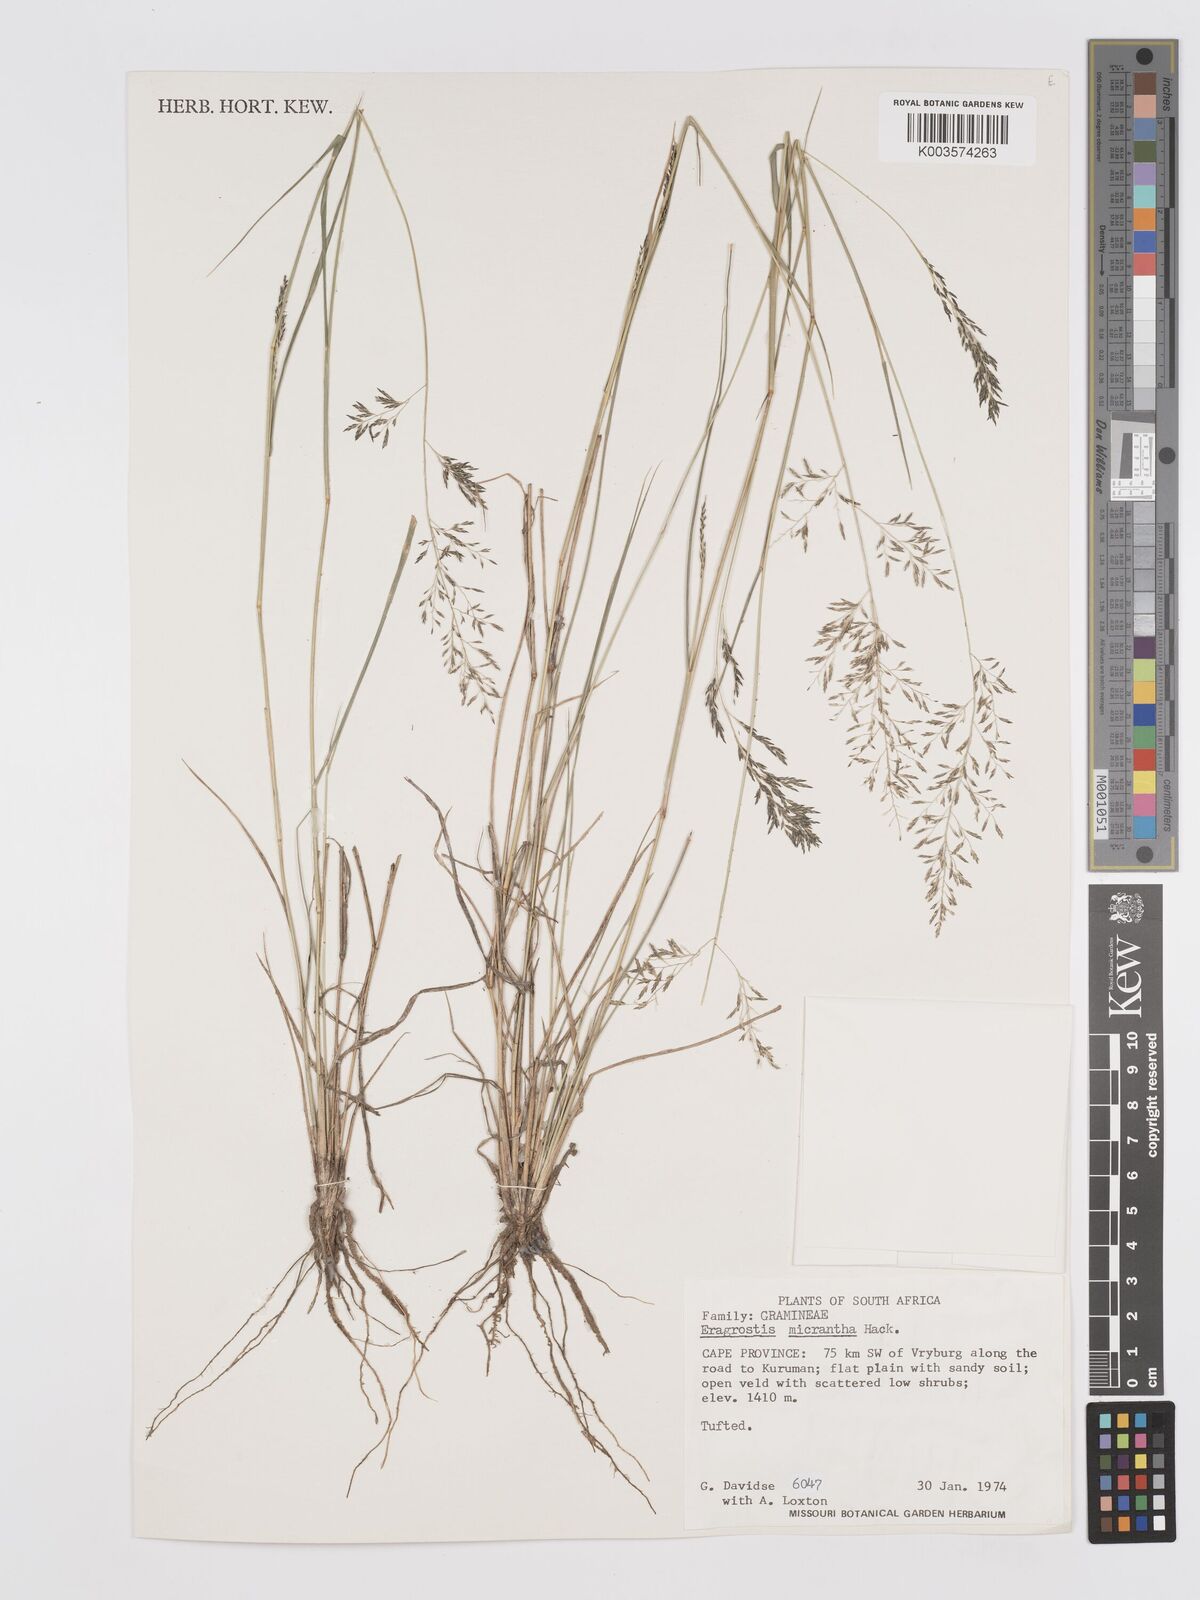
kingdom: Plantae
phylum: Tracheophyta
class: Liliopsida
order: Poales
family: Poaceae
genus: Eragrostis
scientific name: Eragrostis micrantha
